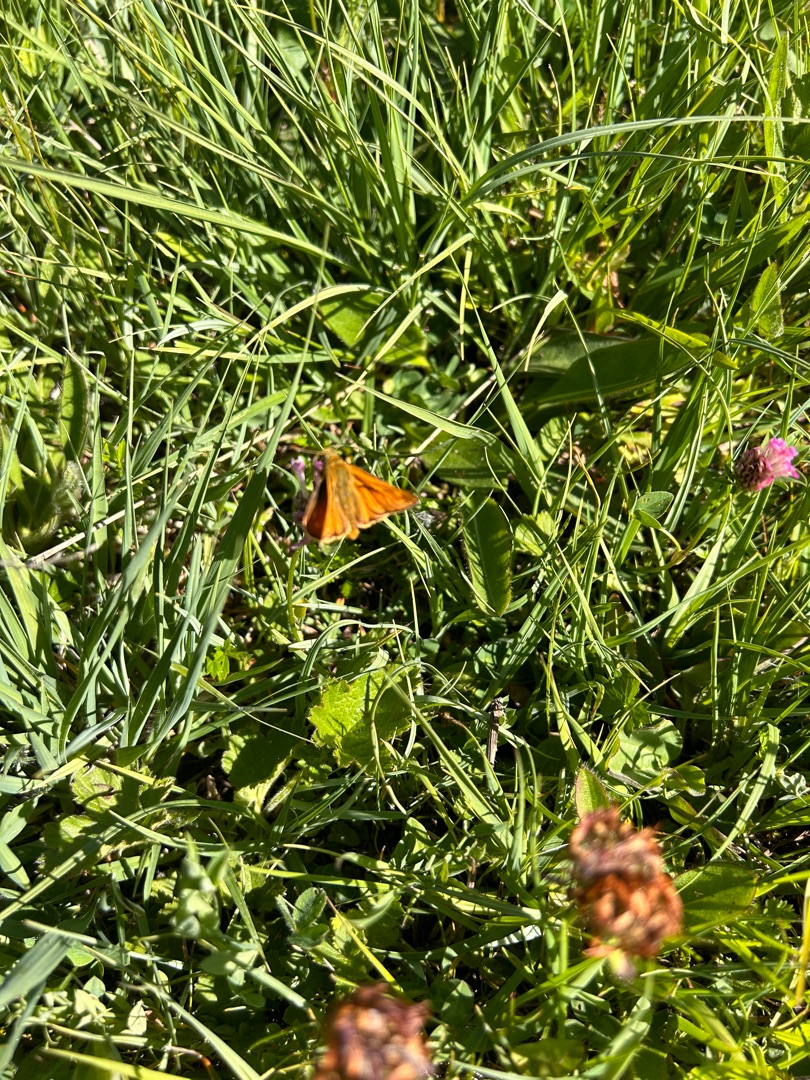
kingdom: Animalia
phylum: Arthropoda
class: Insecta
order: Lepidoptera
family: Hesperiidae
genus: Ochlodes
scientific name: Ochlodes venata
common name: Stor bredpande
